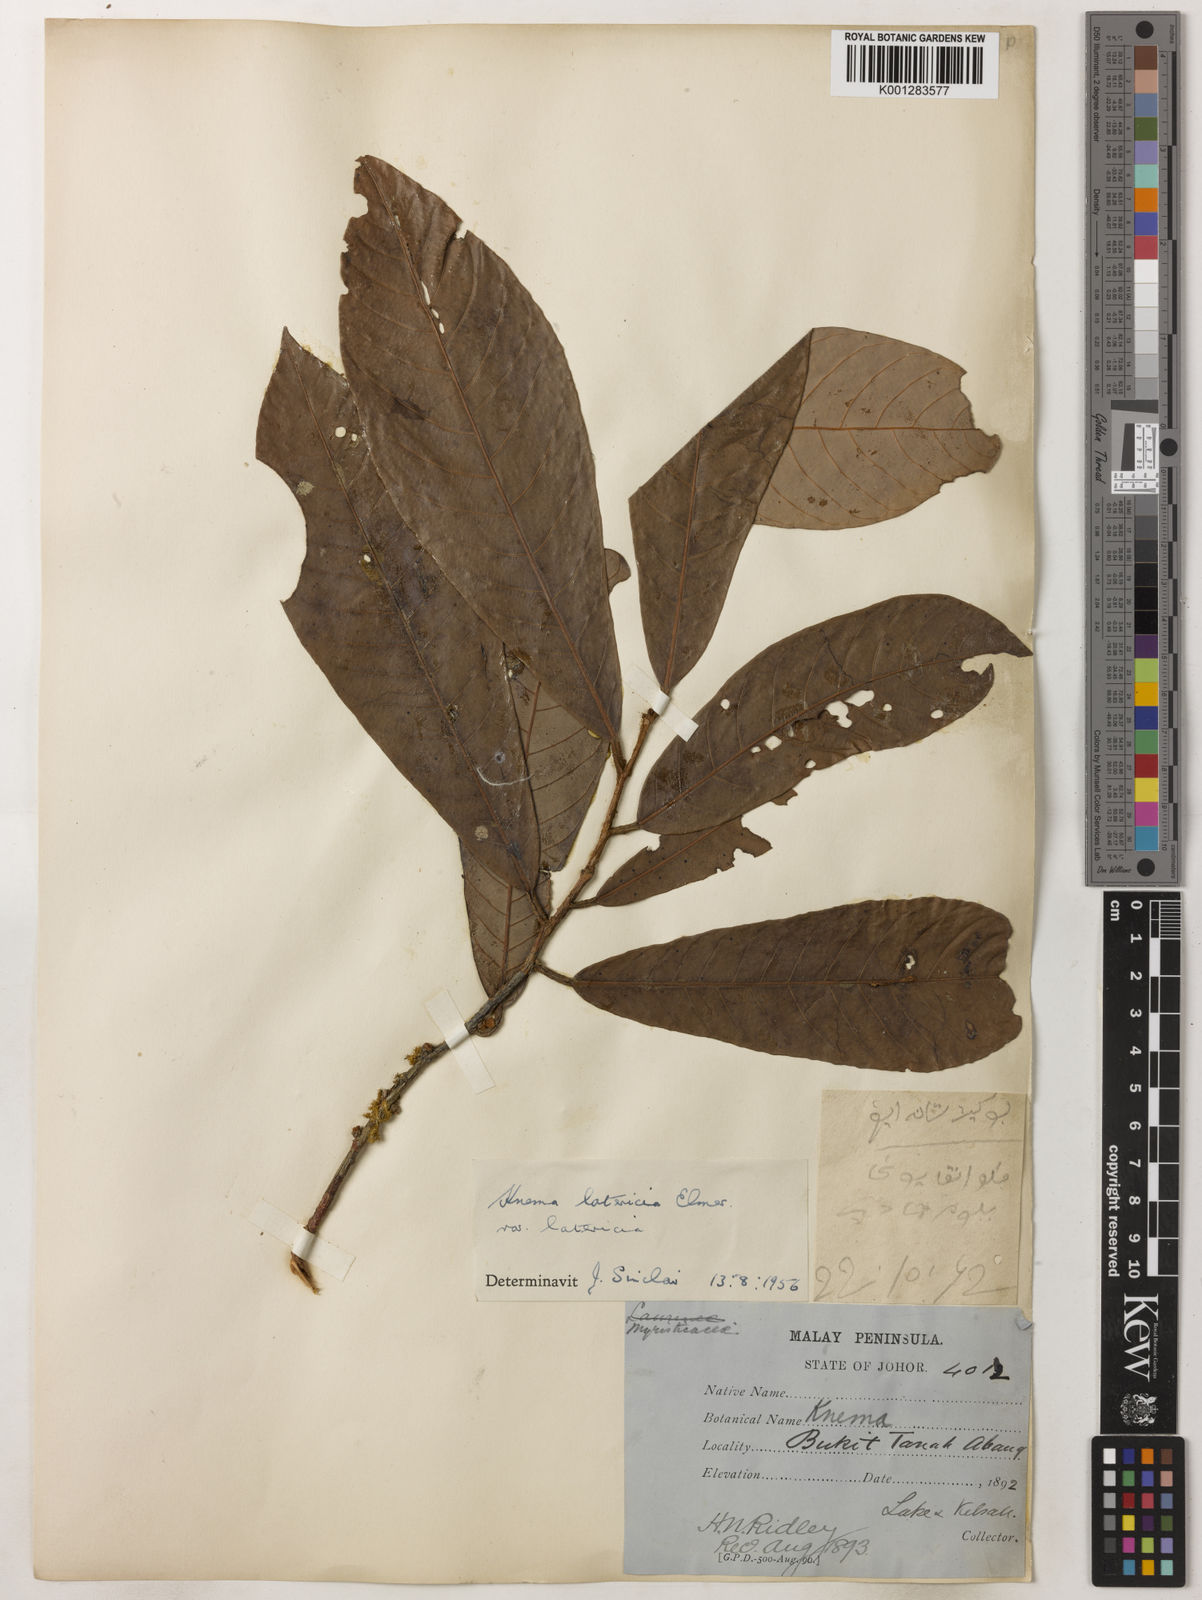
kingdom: Plantae
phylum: Tracheophyta
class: Magnoliopsida
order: Magnoliales
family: Myristicaceae
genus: Knema
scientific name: Knema latericia
